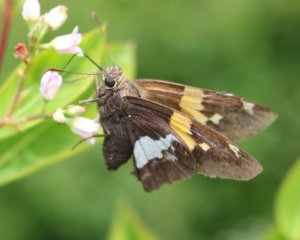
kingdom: Animalia
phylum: Arthropoda
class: Insecta
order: Lepidoptera
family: Hesperiidae
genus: Epargyreus
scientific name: Epargyreus clarus
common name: Silver-spotted Skipper
